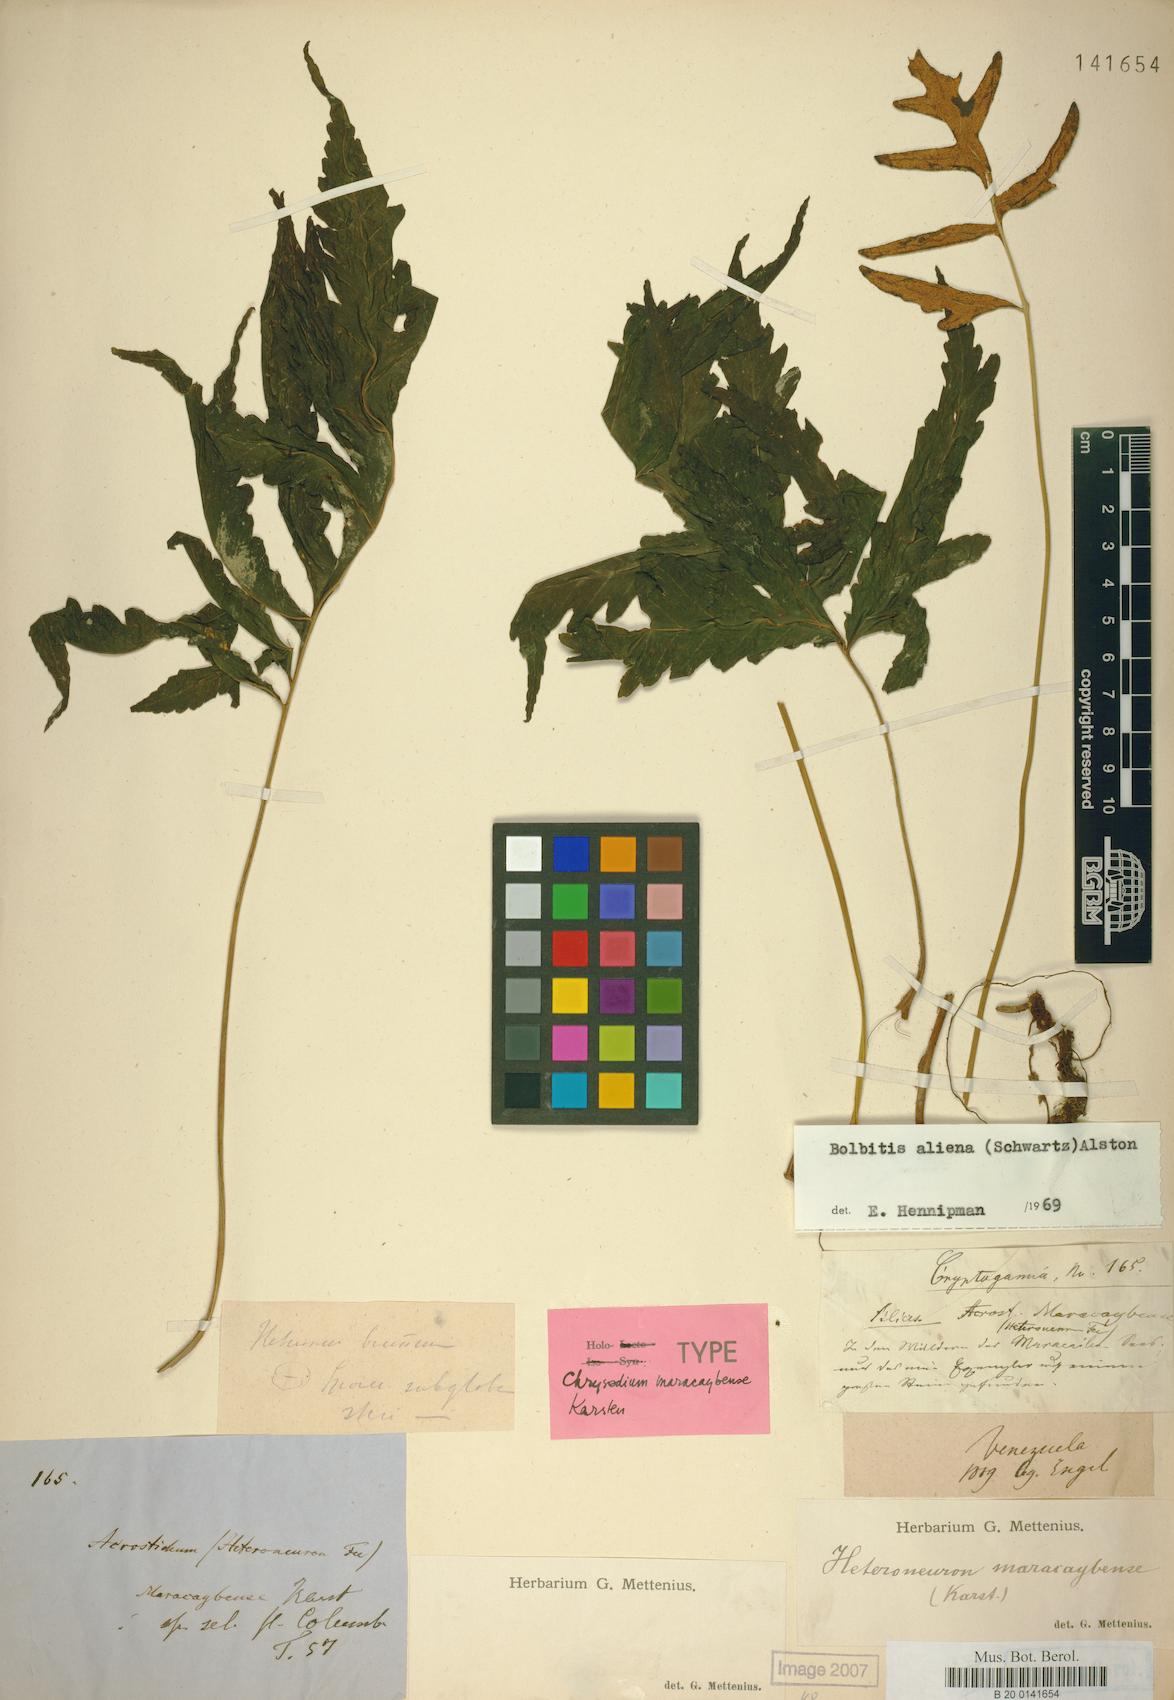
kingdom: Plantae
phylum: Tracheophyta
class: Polypodiopsida
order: Polypodiales
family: Dryopteridaceae
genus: Bolbitis
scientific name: Bolbitis aliena
